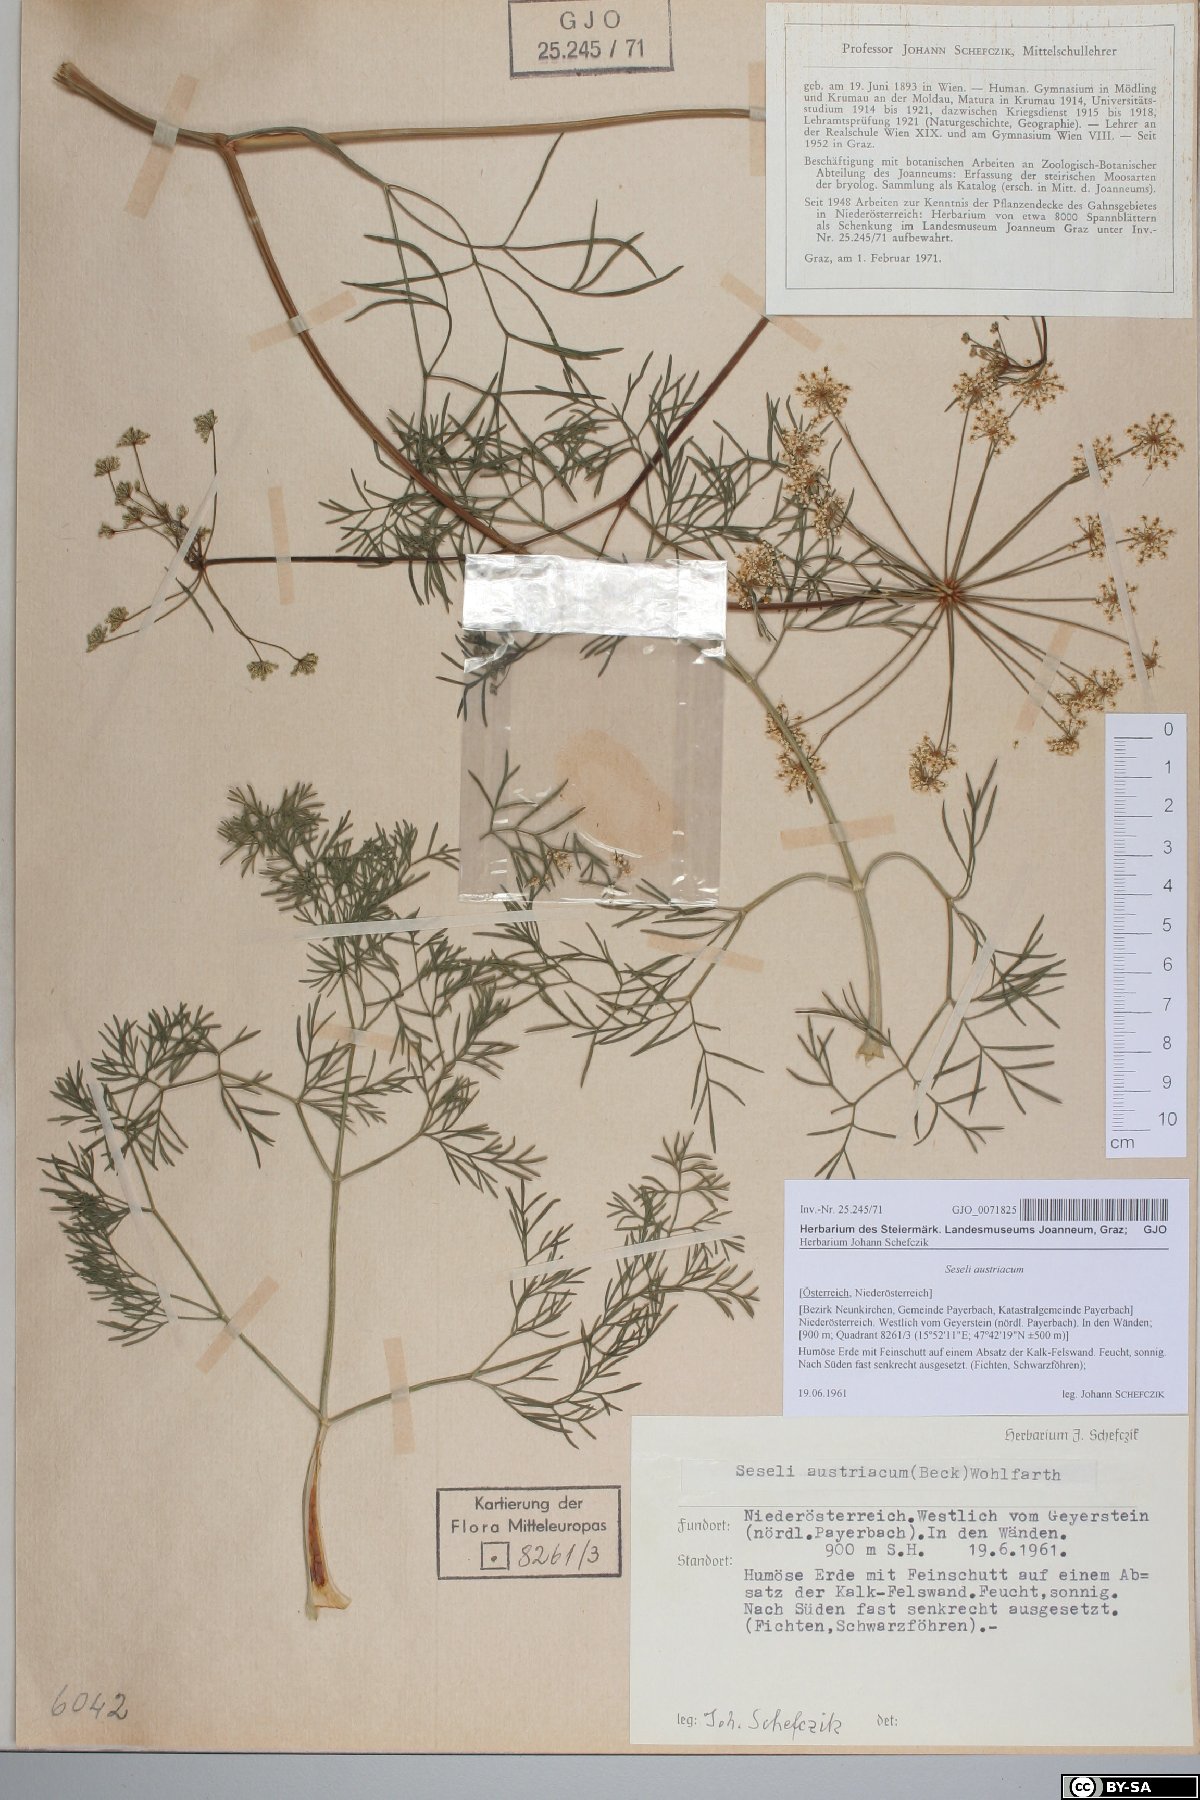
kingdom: Plantae
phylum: Tracheophyta
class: Magnoliopsida
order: Apiales
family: Apiaceae
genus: Seseli
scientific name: Seseli austriacum
